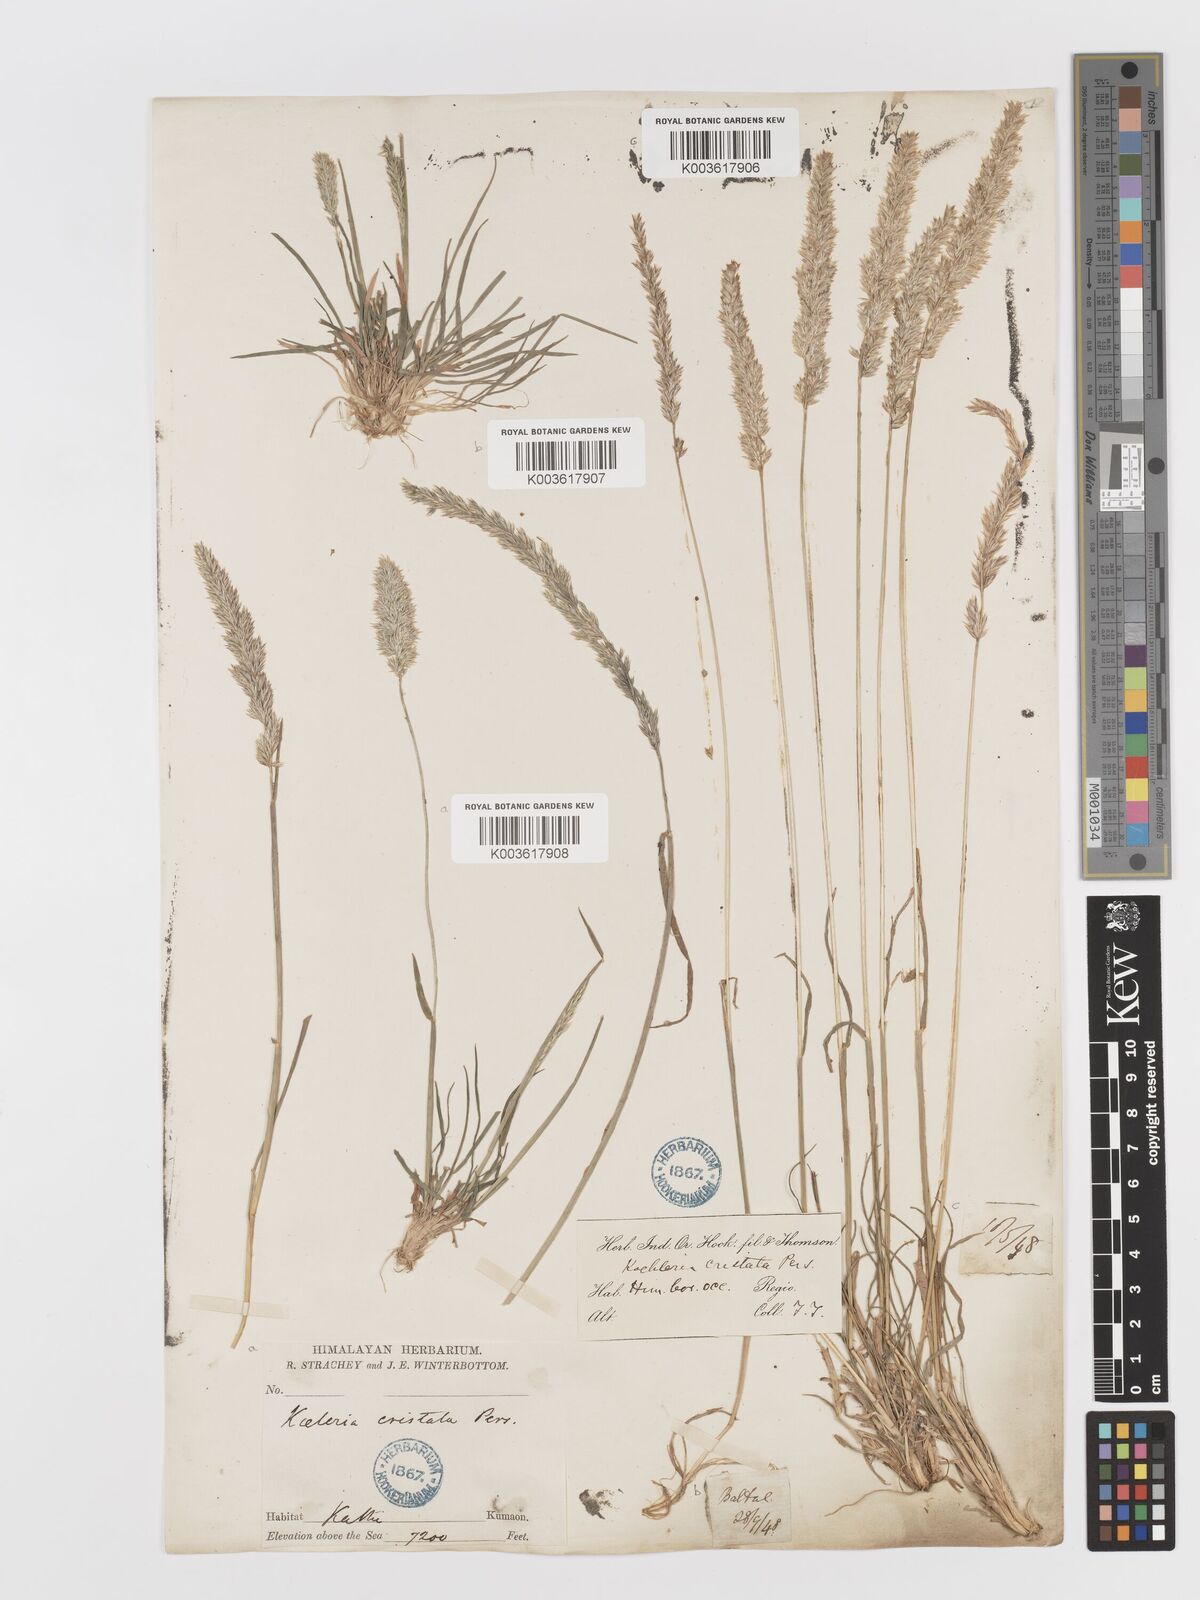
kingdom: Plantae
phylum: Tracheophyta
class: Liliopsida
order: Poales
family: Poaceae
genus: Koeleria
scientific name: Koeleria
